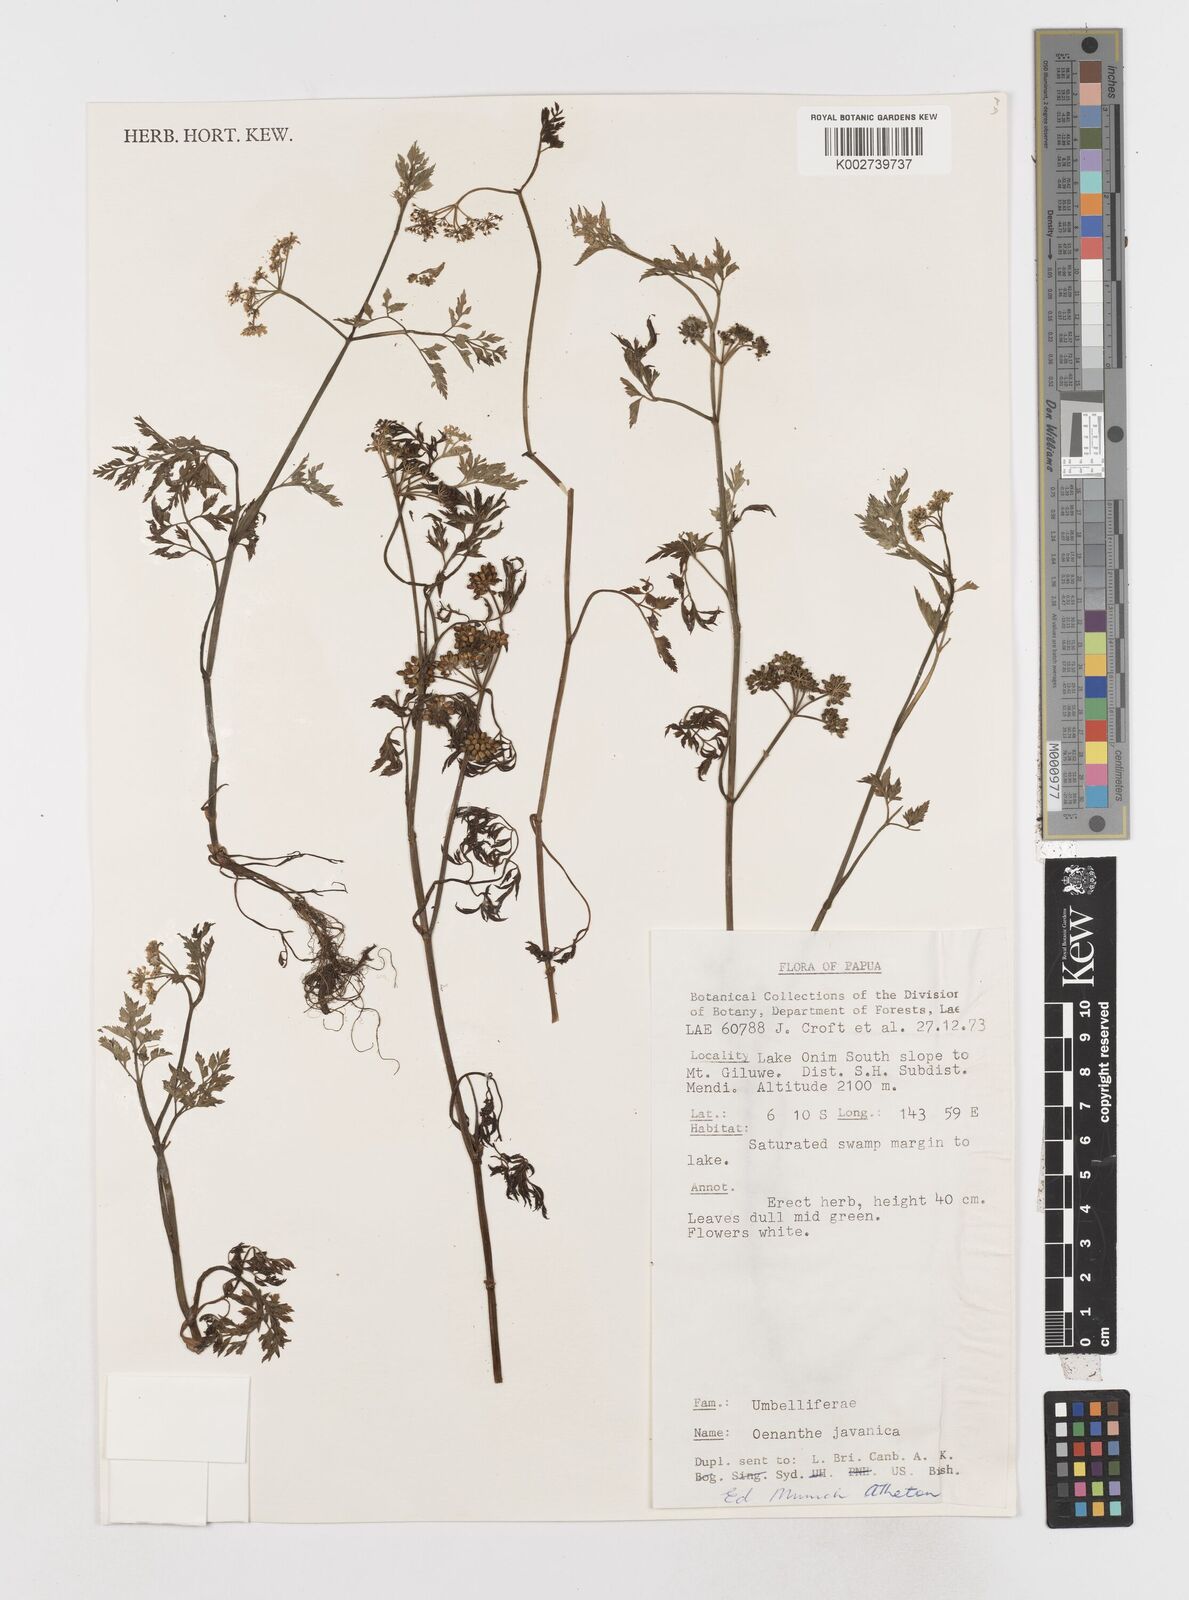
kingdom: Plantae
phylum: Tracheophyta
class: Magnoliopsida
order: Apiales
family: Apiaceae
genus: Oenanthe
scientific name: Oenanthe javanica
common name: Java water-dropwort
